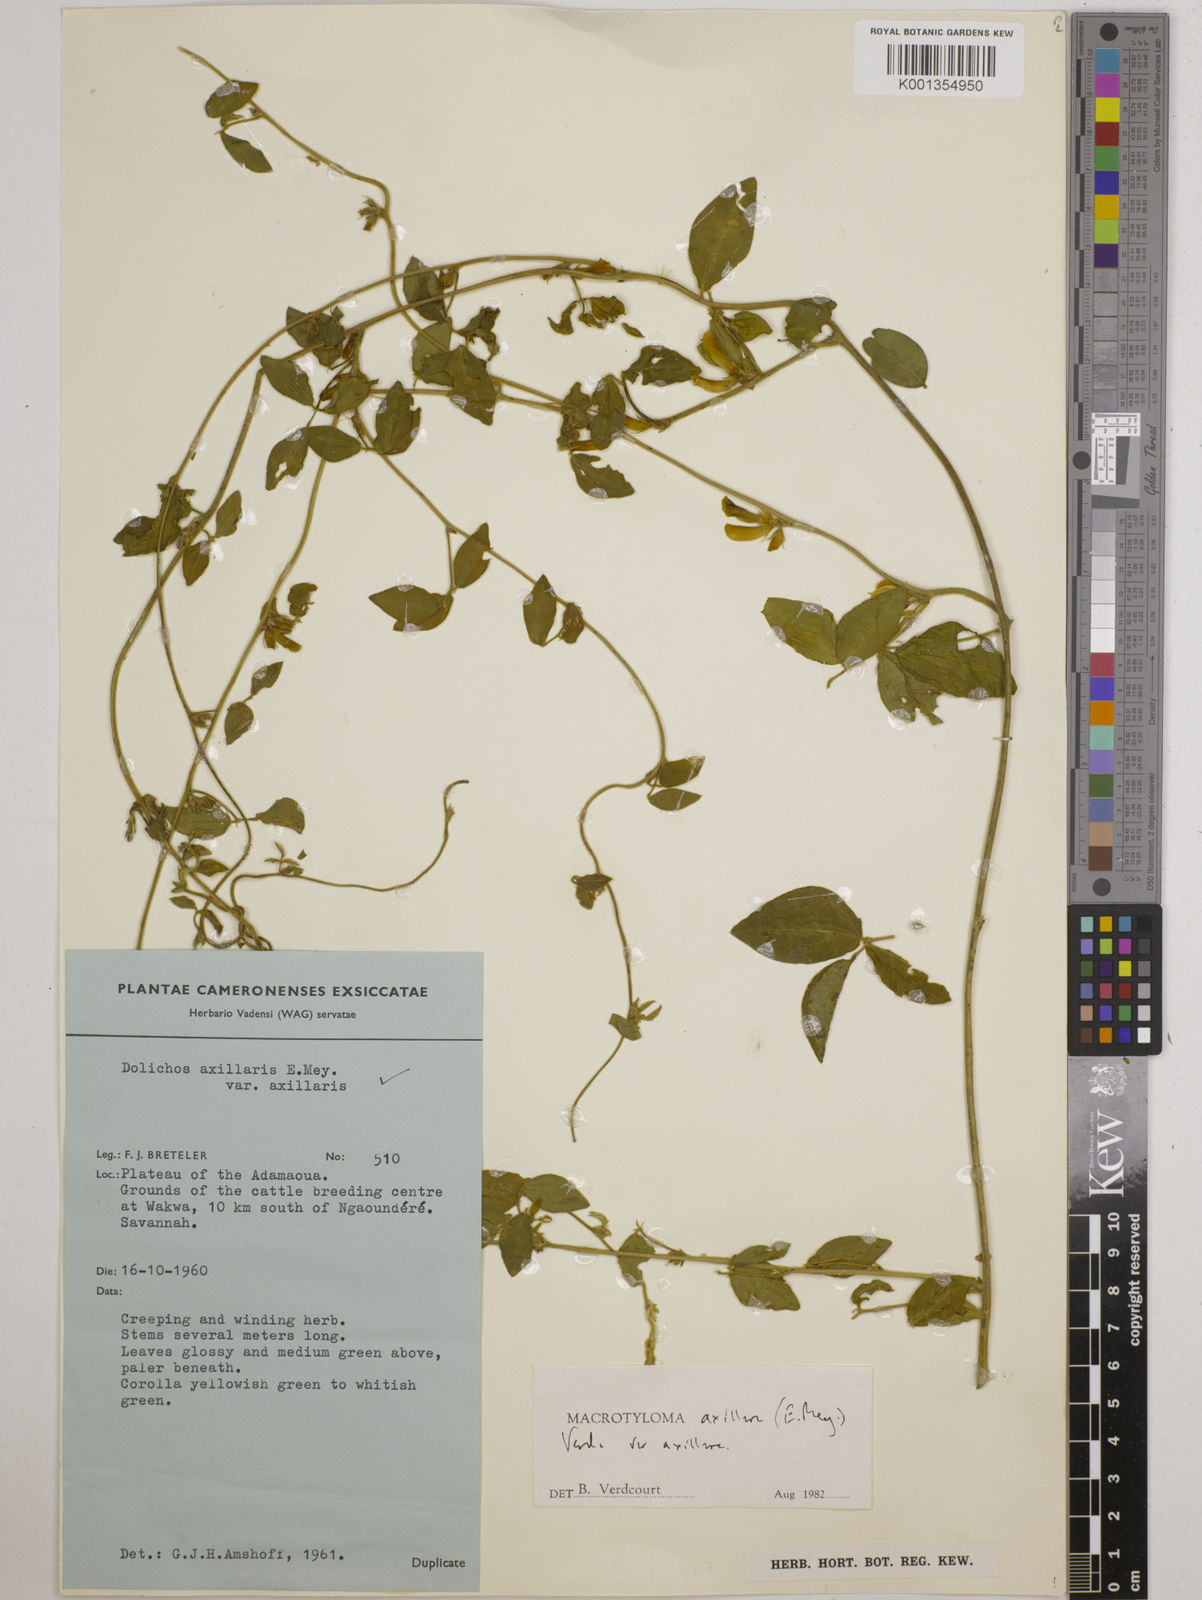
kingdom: Plantae
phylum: Tracheophyta
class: Magnoliopsida
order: Fabales
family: Fabaceae
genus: Macrotyloma
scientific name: Macrotyloma axillare
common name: Perennial horsegram
